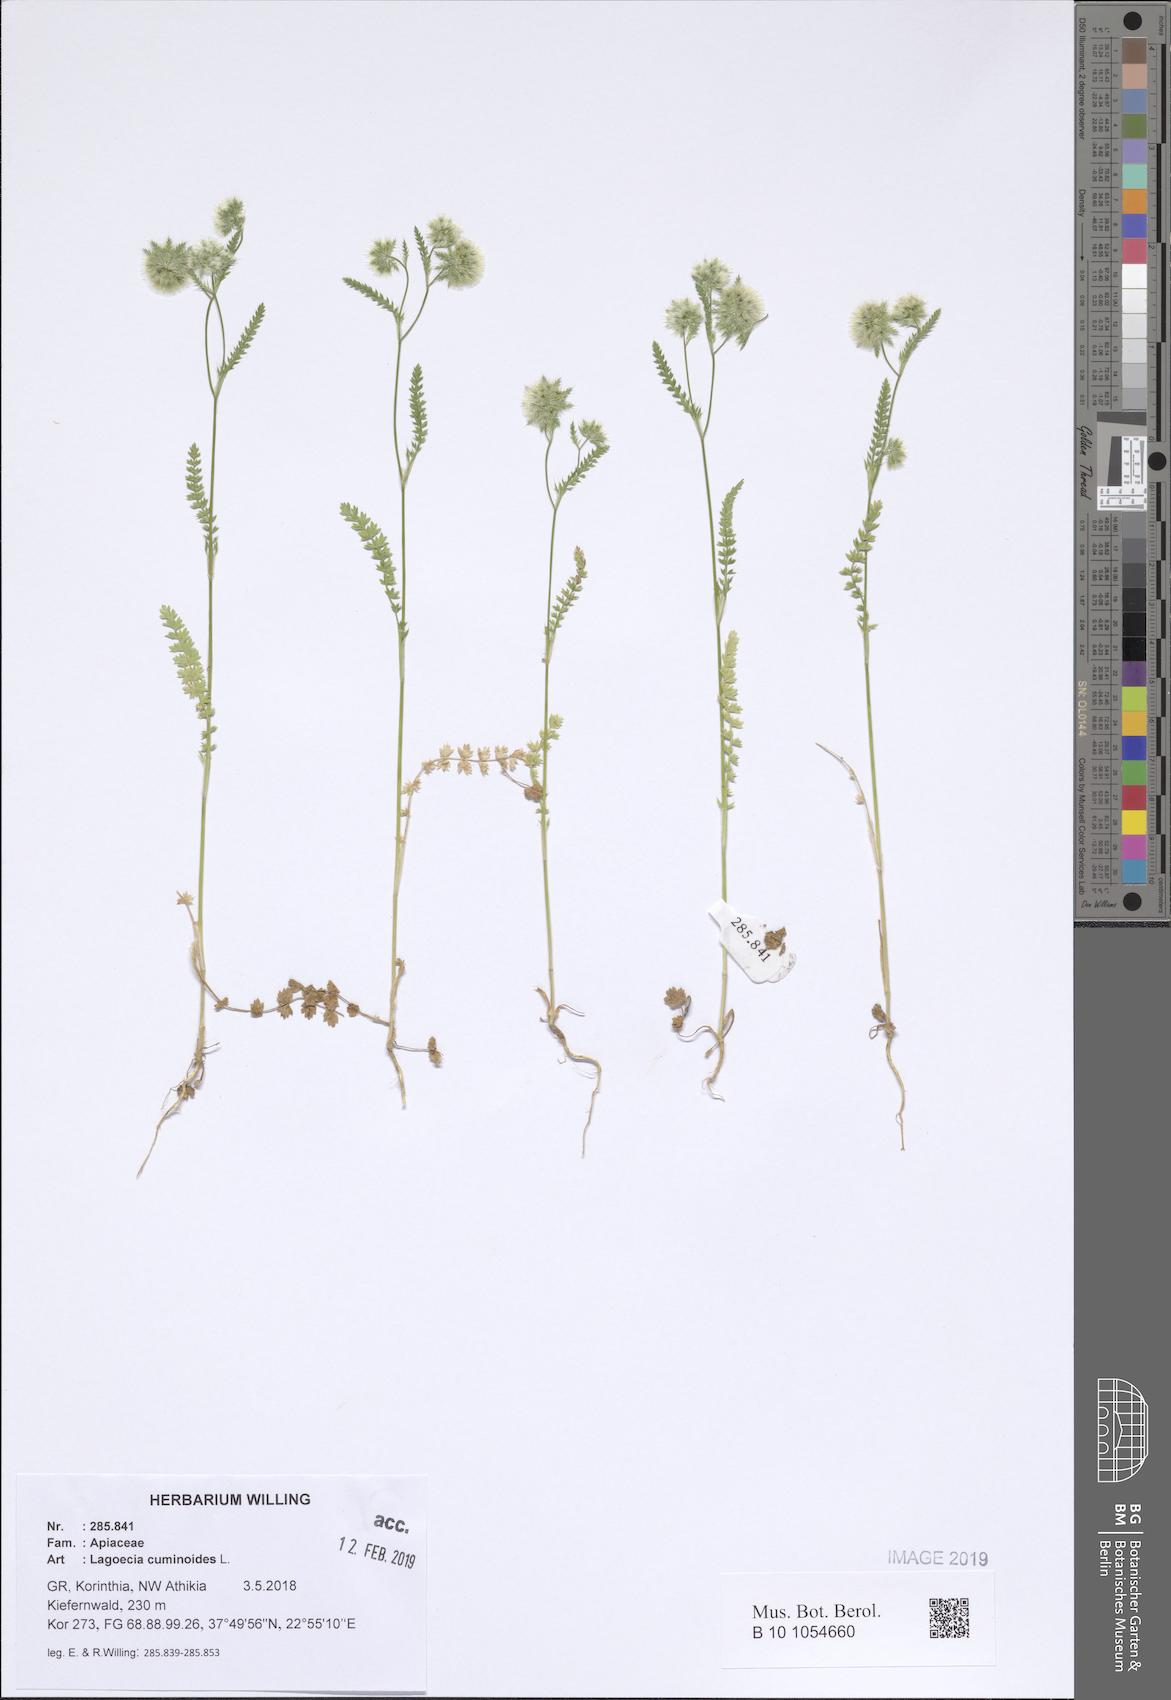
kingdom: Plantae
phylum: Tracheophyta
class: Magnoliopsida
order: Apiales
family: Apiaceae
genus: Lagoecia
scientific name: Lagoecia cuminoides
